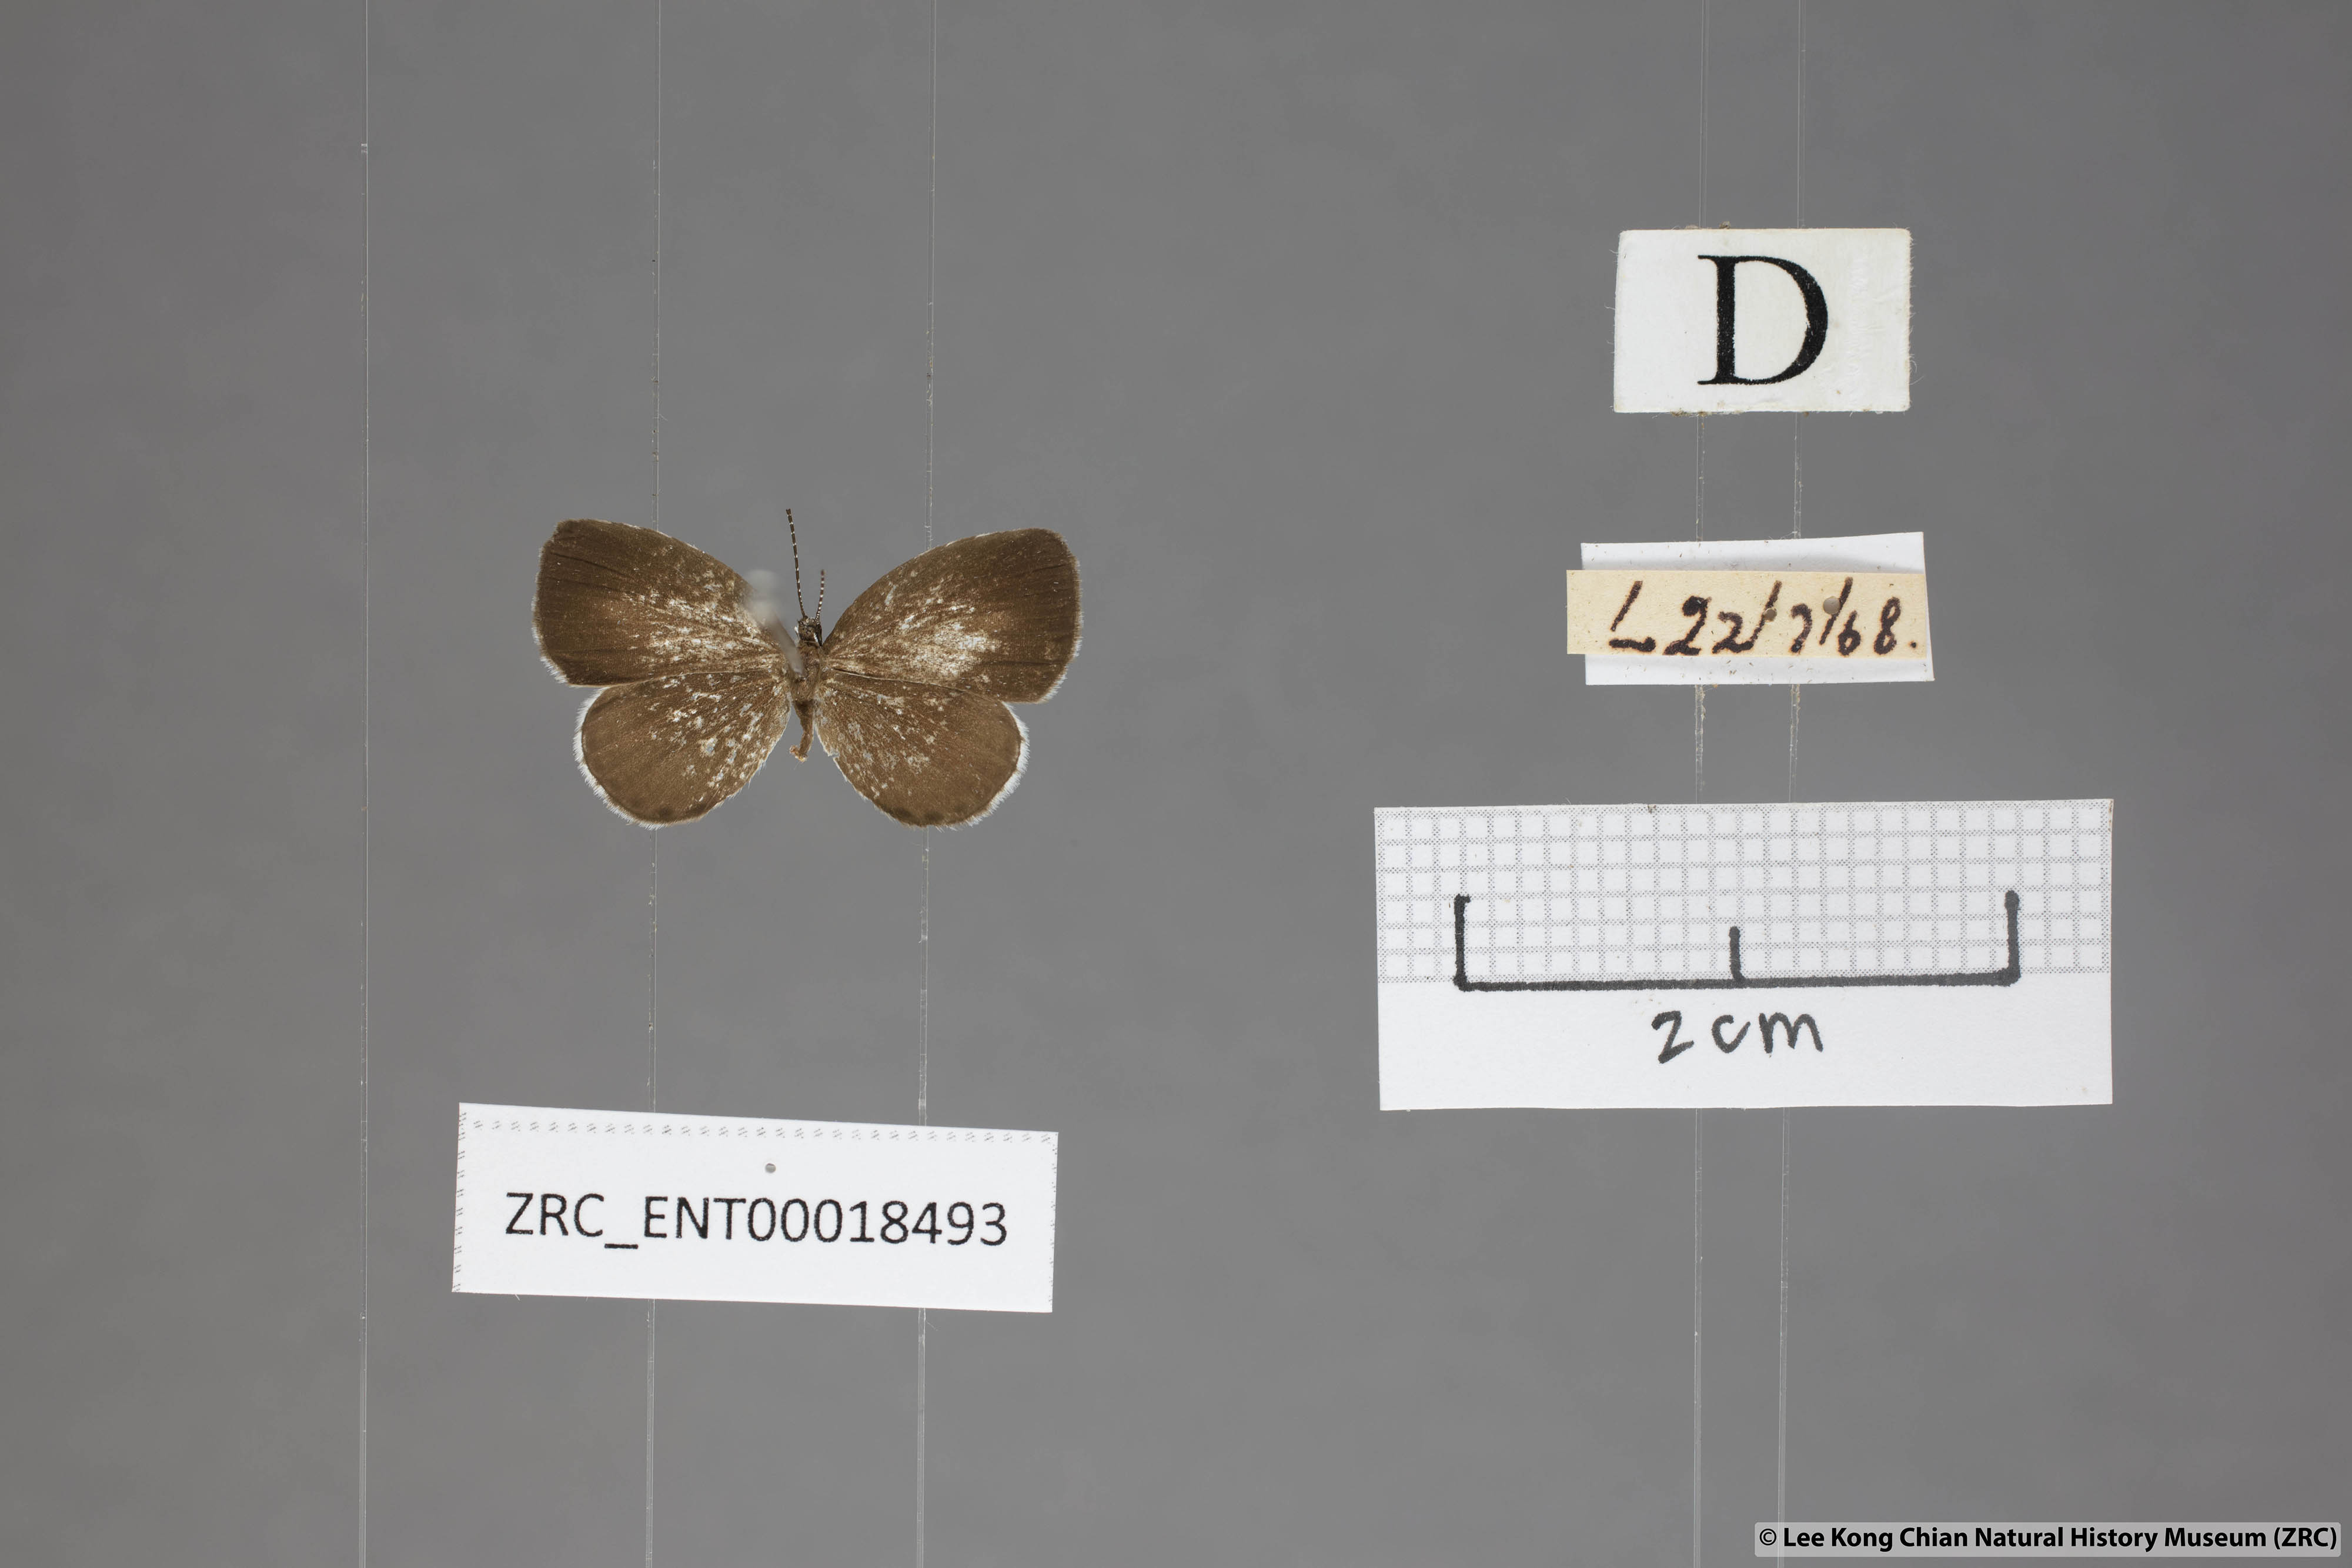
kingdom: Animalia
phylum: Arthropoda
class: Insecta
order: Lepidoptera
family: Lycaenidae
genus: Neopithecops
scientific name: Neopithecops zalmora
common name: Quaker
